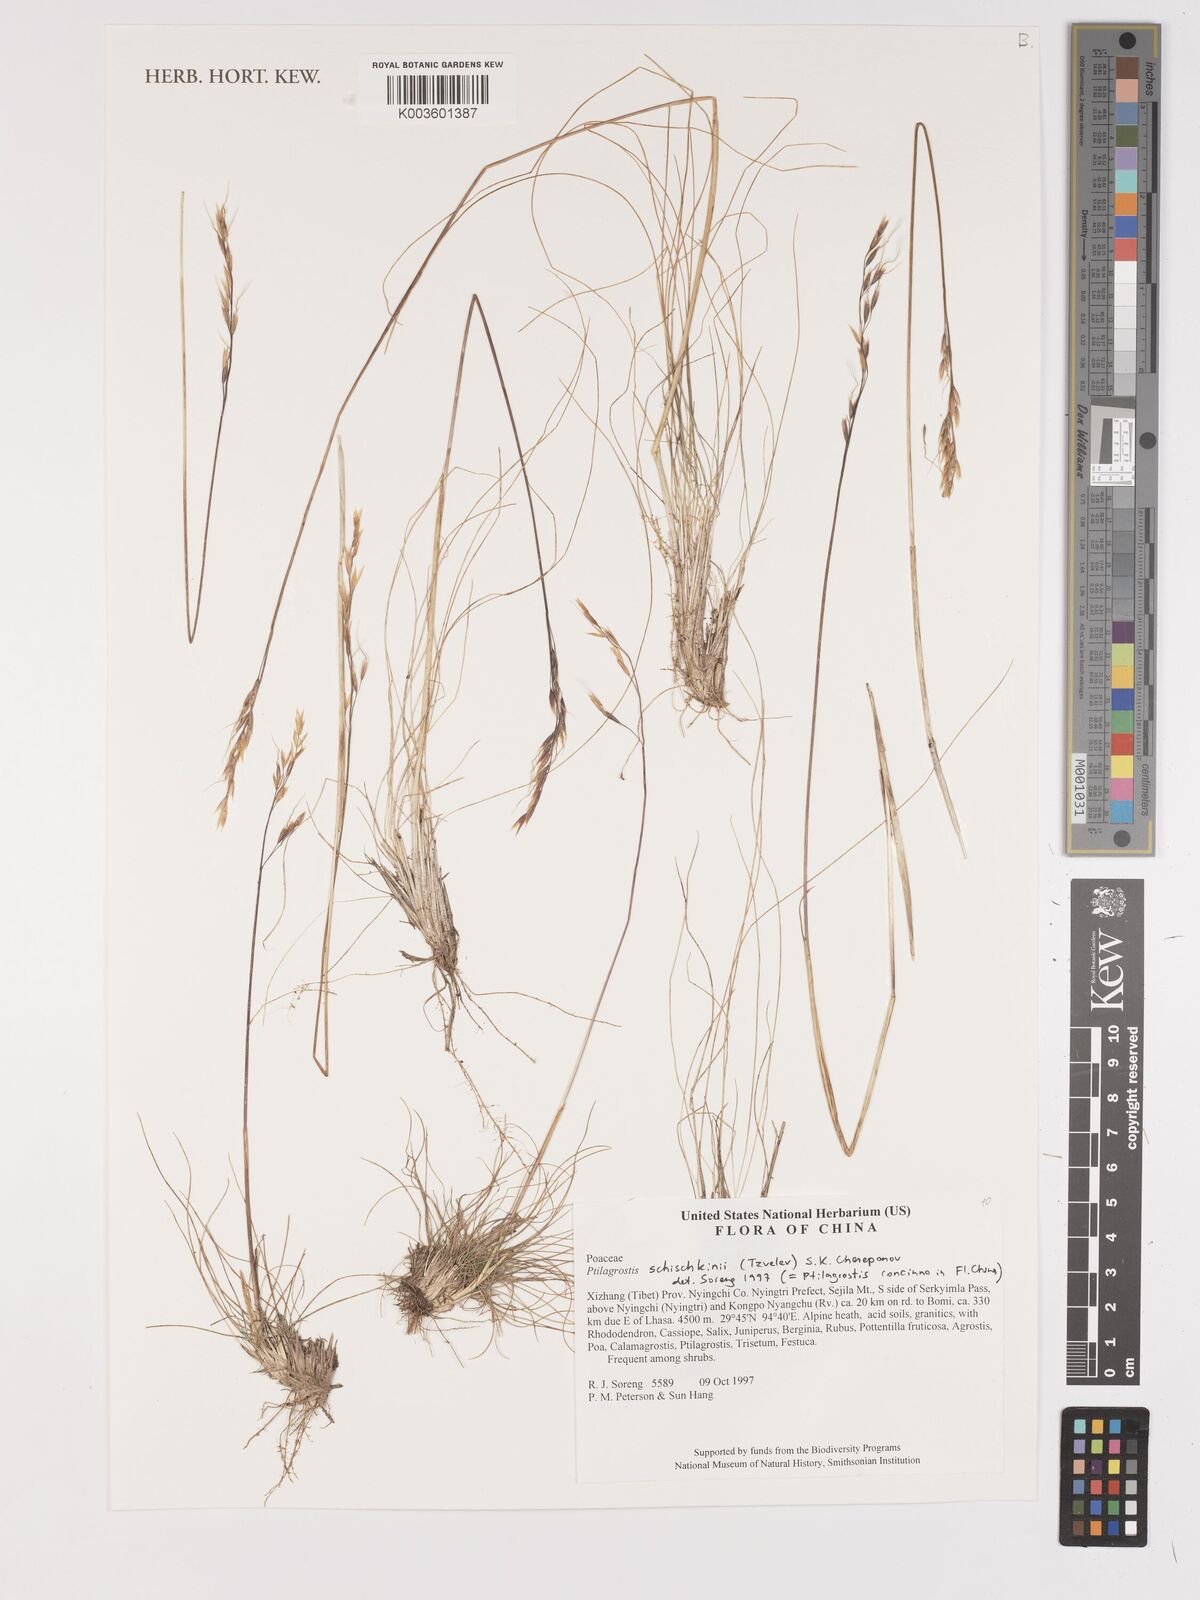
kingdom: Plantae
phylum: Tracheophyta
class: Liliopsida
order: Poales
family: Poaceae
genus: Ptilagrostis
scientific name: Ptilagrostis concinna
